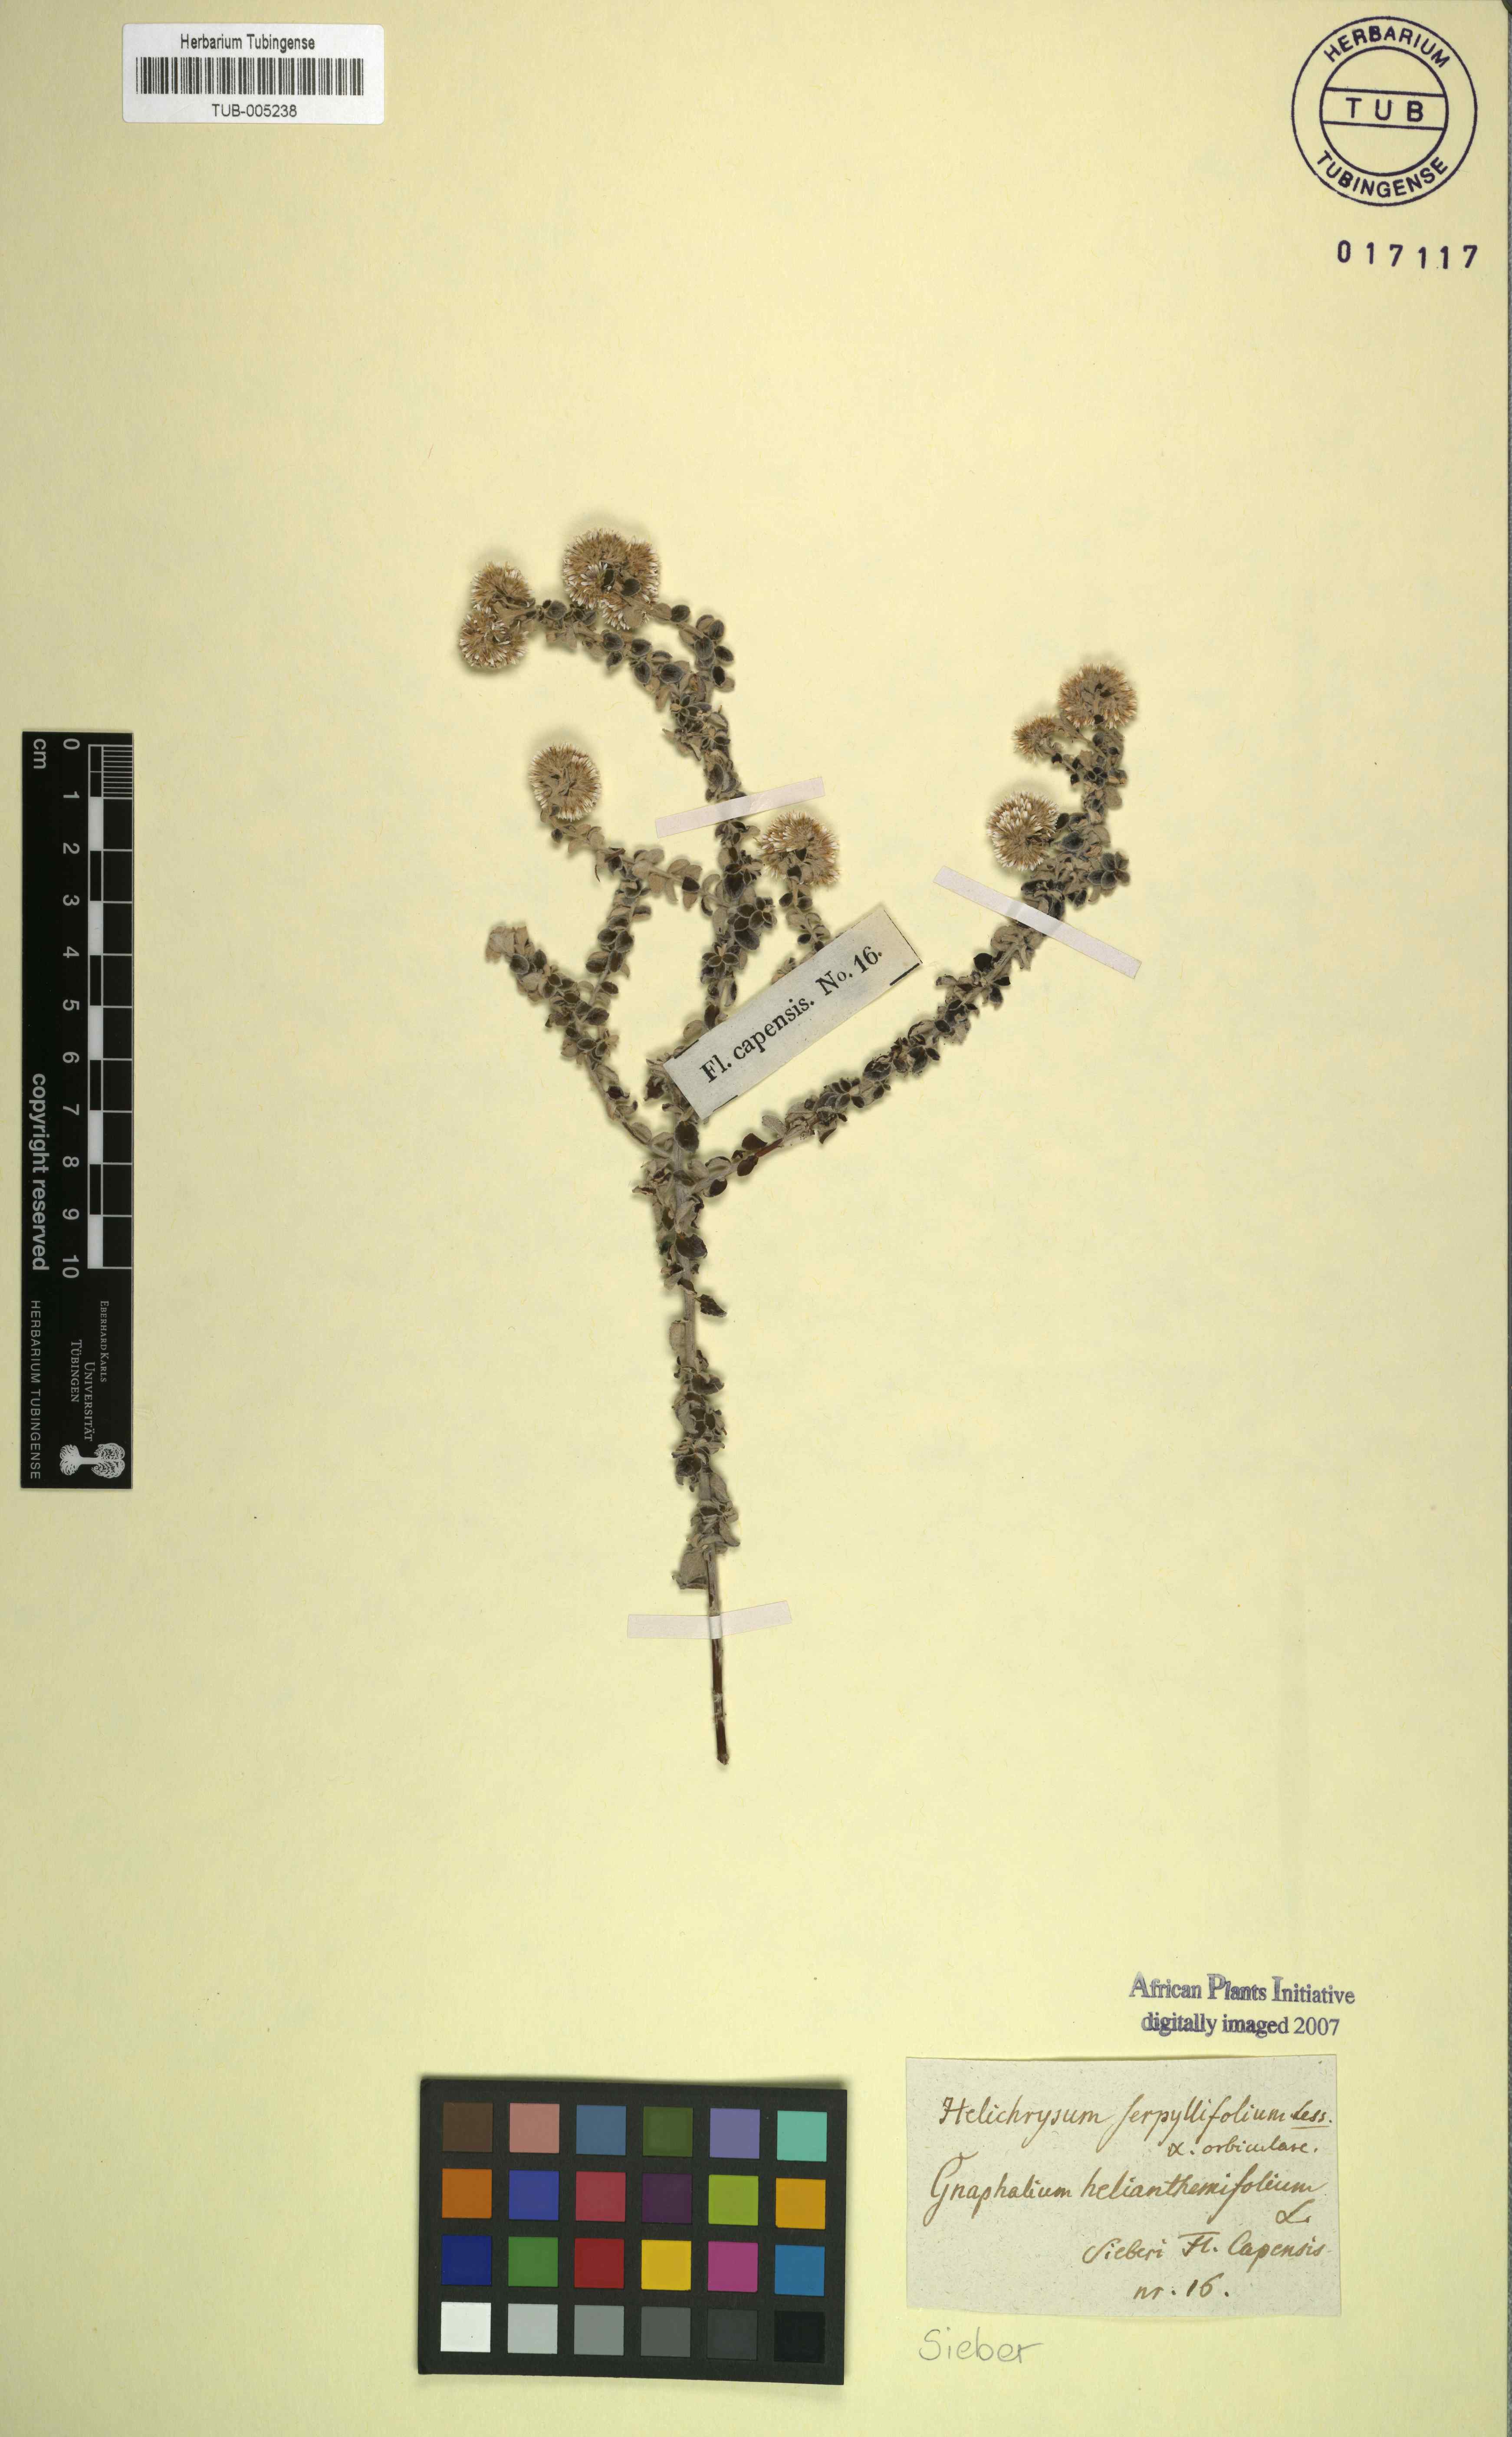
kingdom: Plantae
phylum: Tracheophyta
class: Magnoliopsida
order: Asterales
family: Asteraceae
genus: Plecostachys
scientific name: Plecostachys serpyllifolia
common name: Petite licorice
